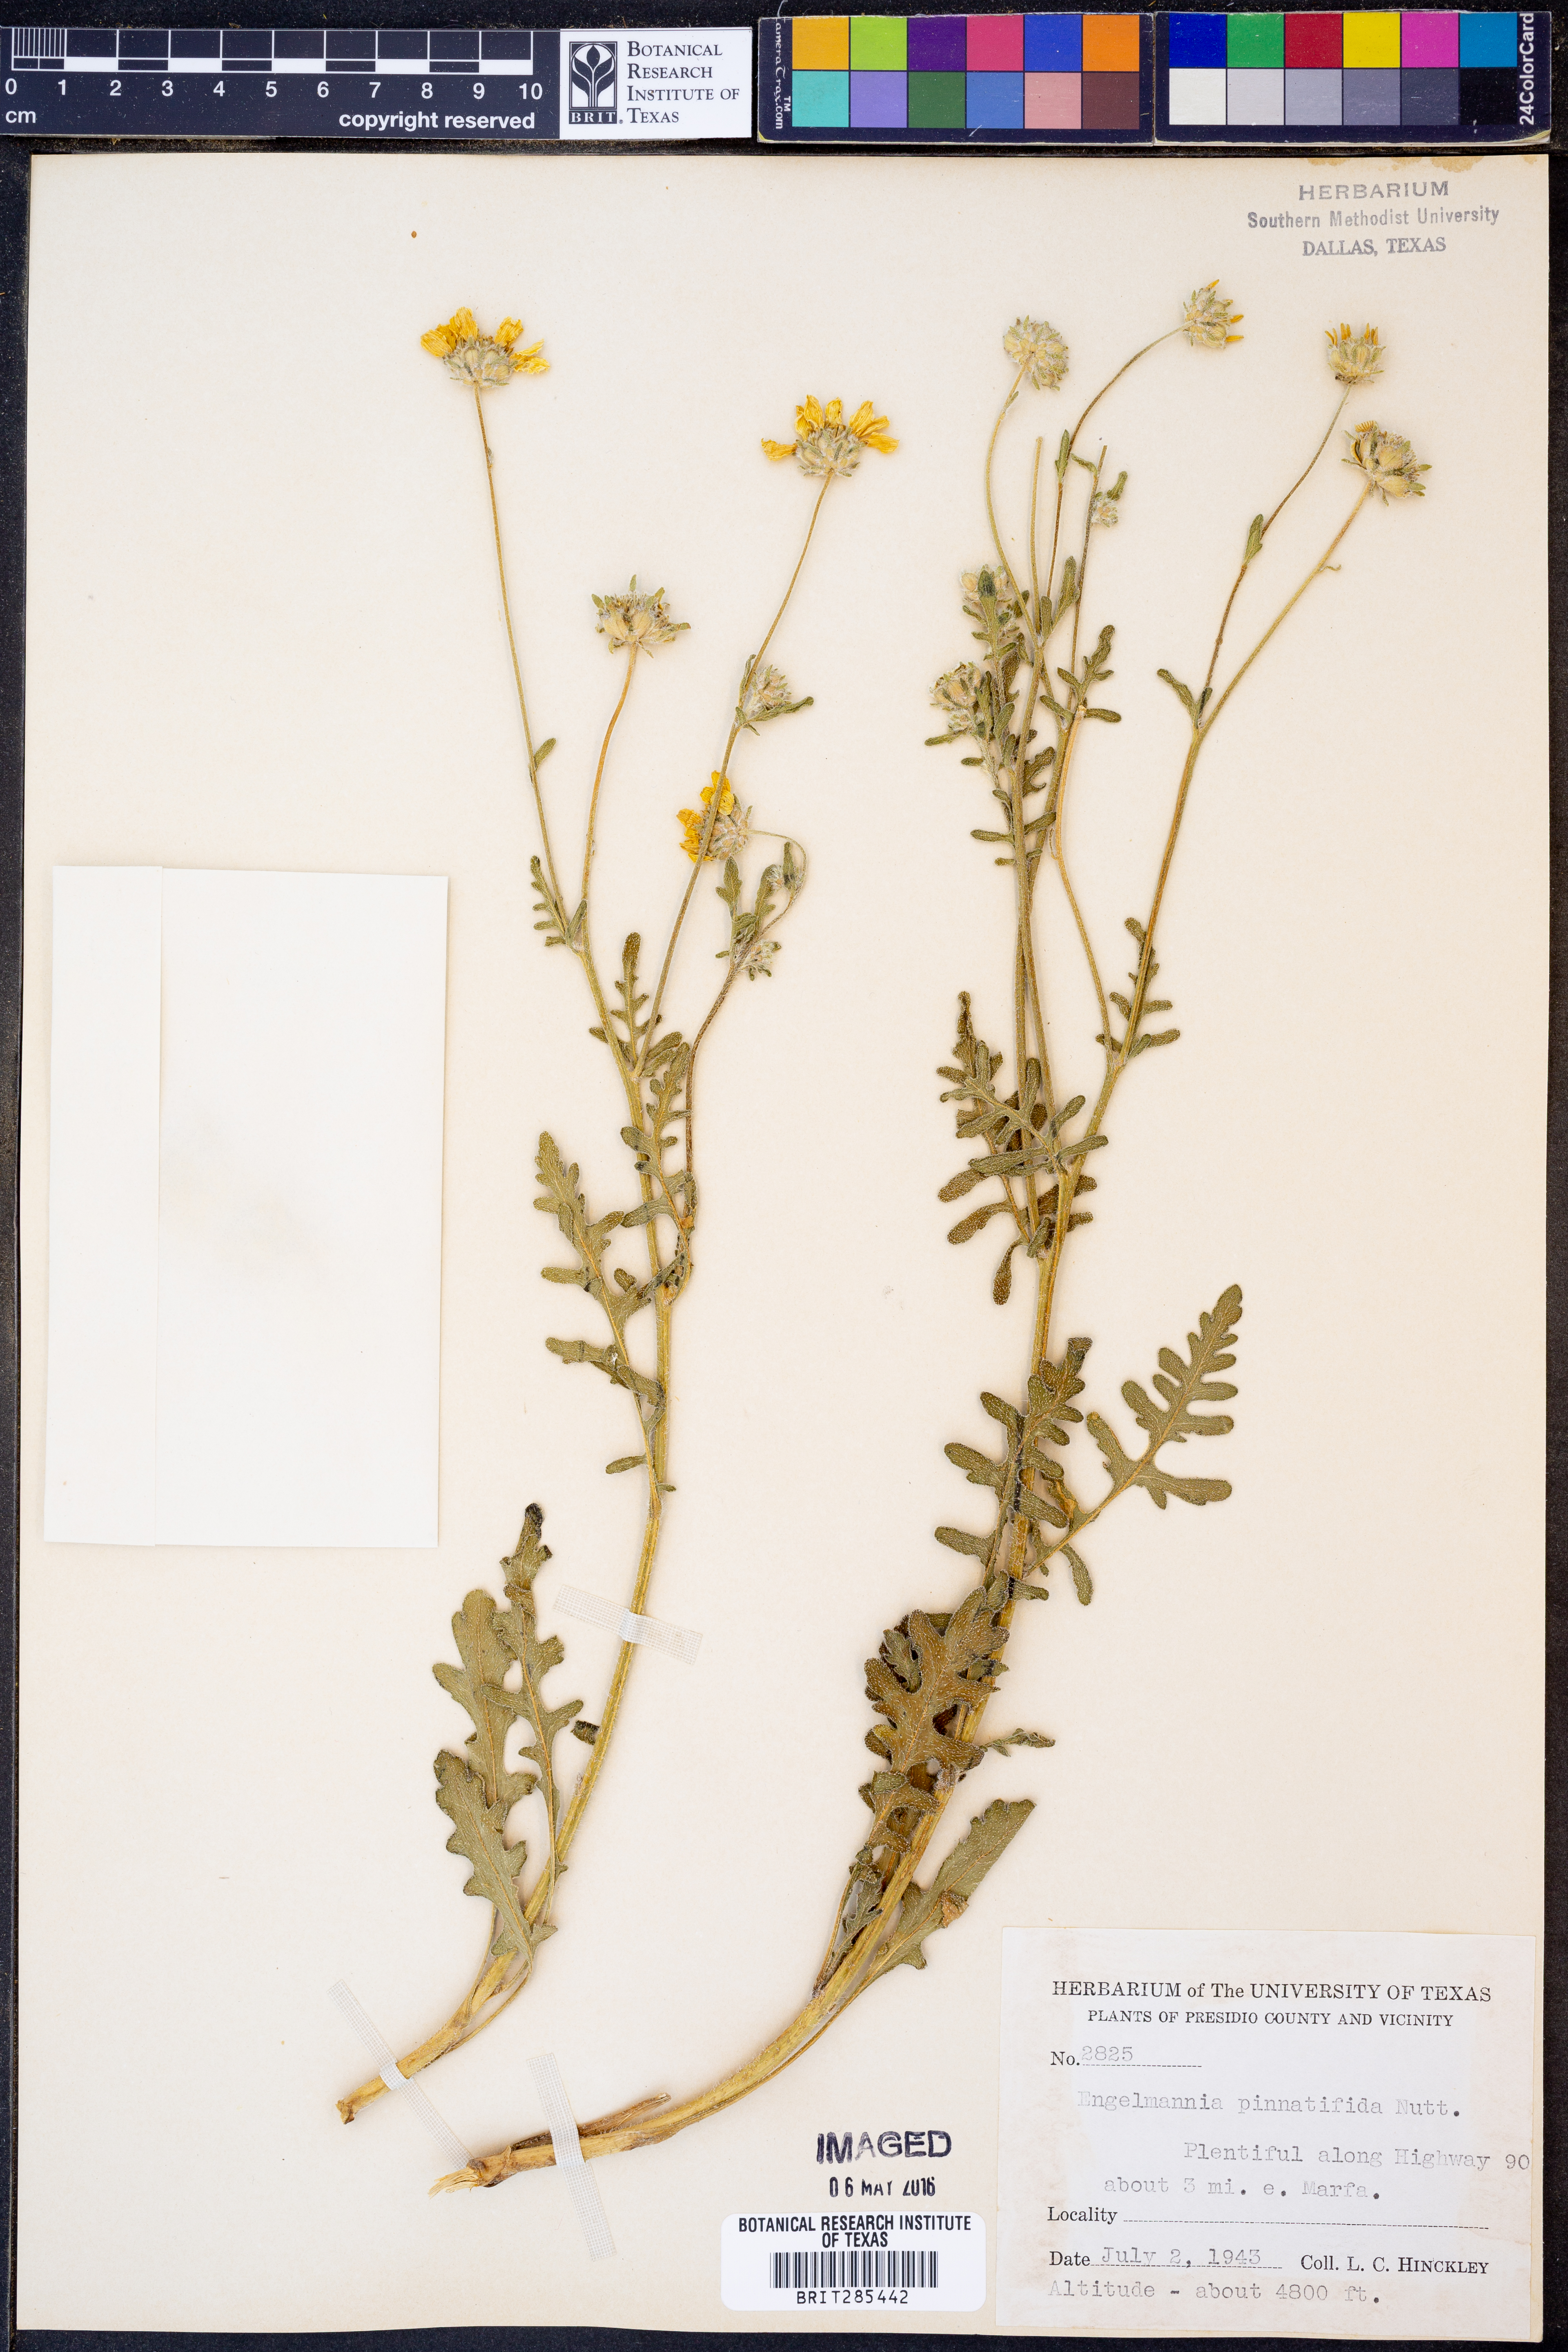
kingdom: Plantae
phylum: Tracheophyta
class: Magnoliopsida
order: Asterales
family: Asteraceae
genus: Engelmannia
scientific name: Engelmannia peristenia
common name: Engelmann's daisy
